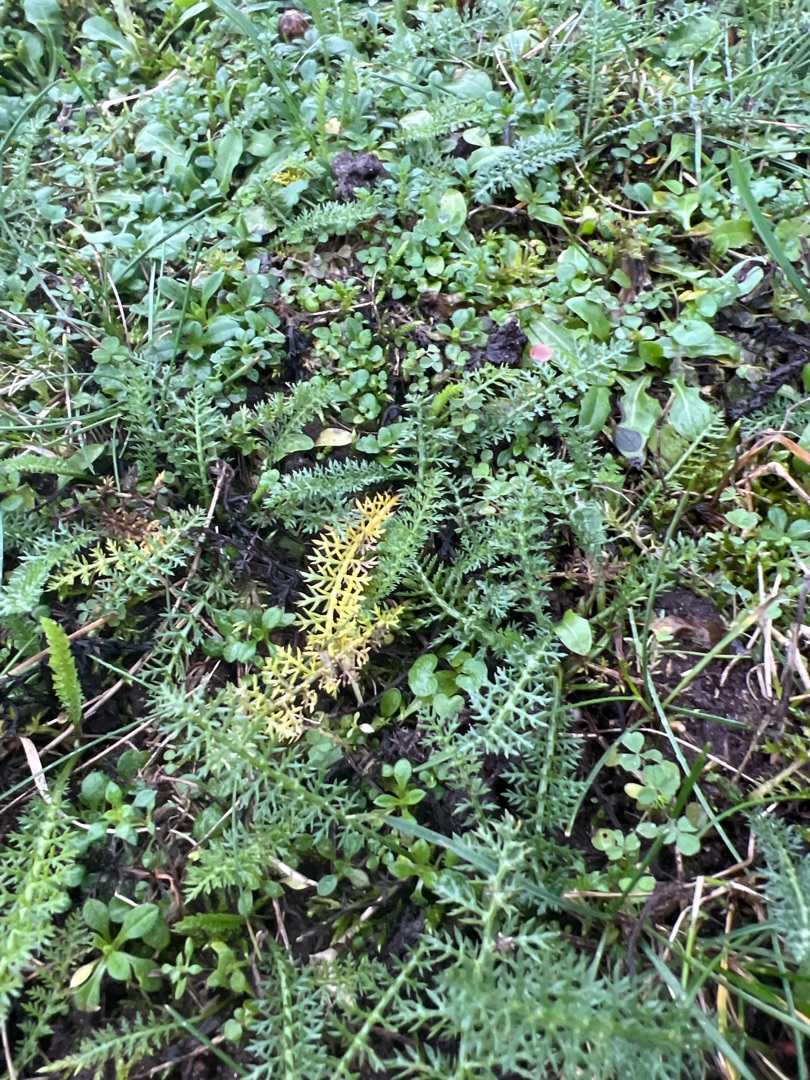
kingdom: Plantae
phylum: Tracheophyta
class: Magnoliopsida
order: Asterales
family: Asteraceae
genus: Achillea
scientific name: Achillea millefolium
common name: Almindelig røllike
